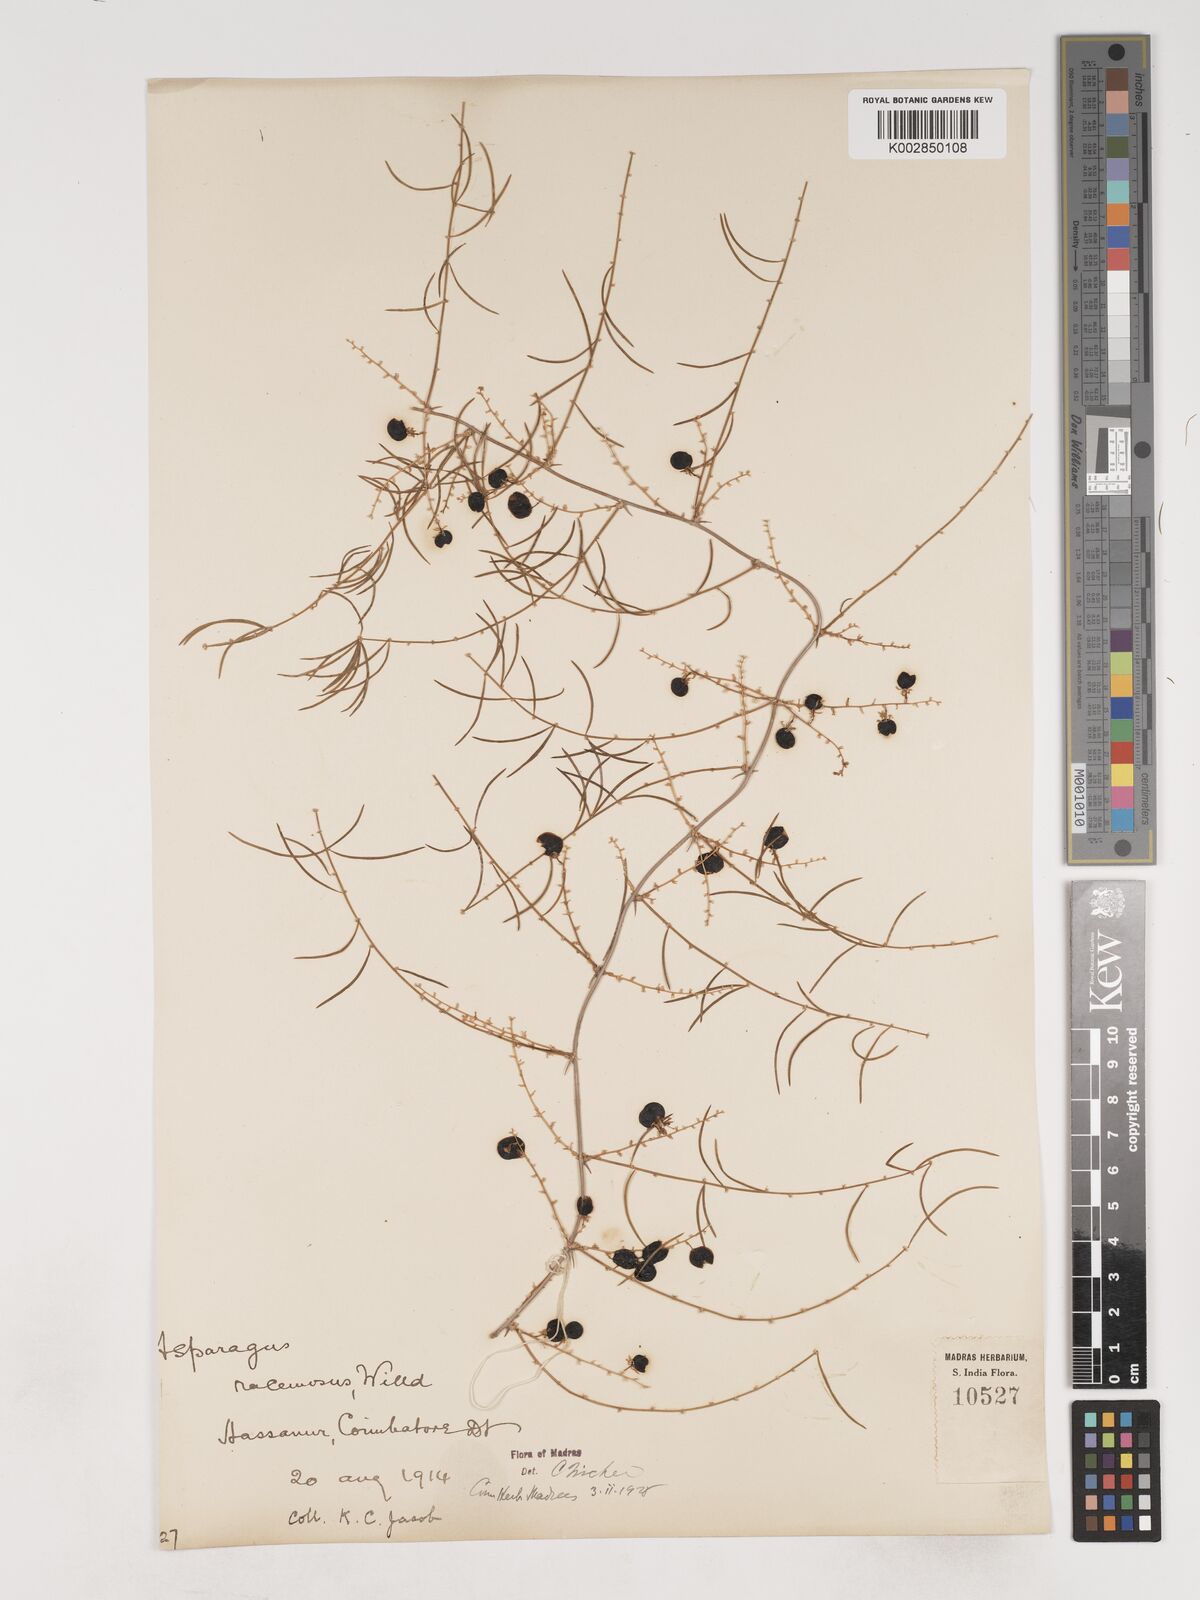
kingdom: Plantae
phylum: Tracheophyta
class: Liliopsida
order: Asparagales
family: Asparagaceae
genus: Asparagus
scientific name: Asparagus racemosus
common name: Asparagus-fern
